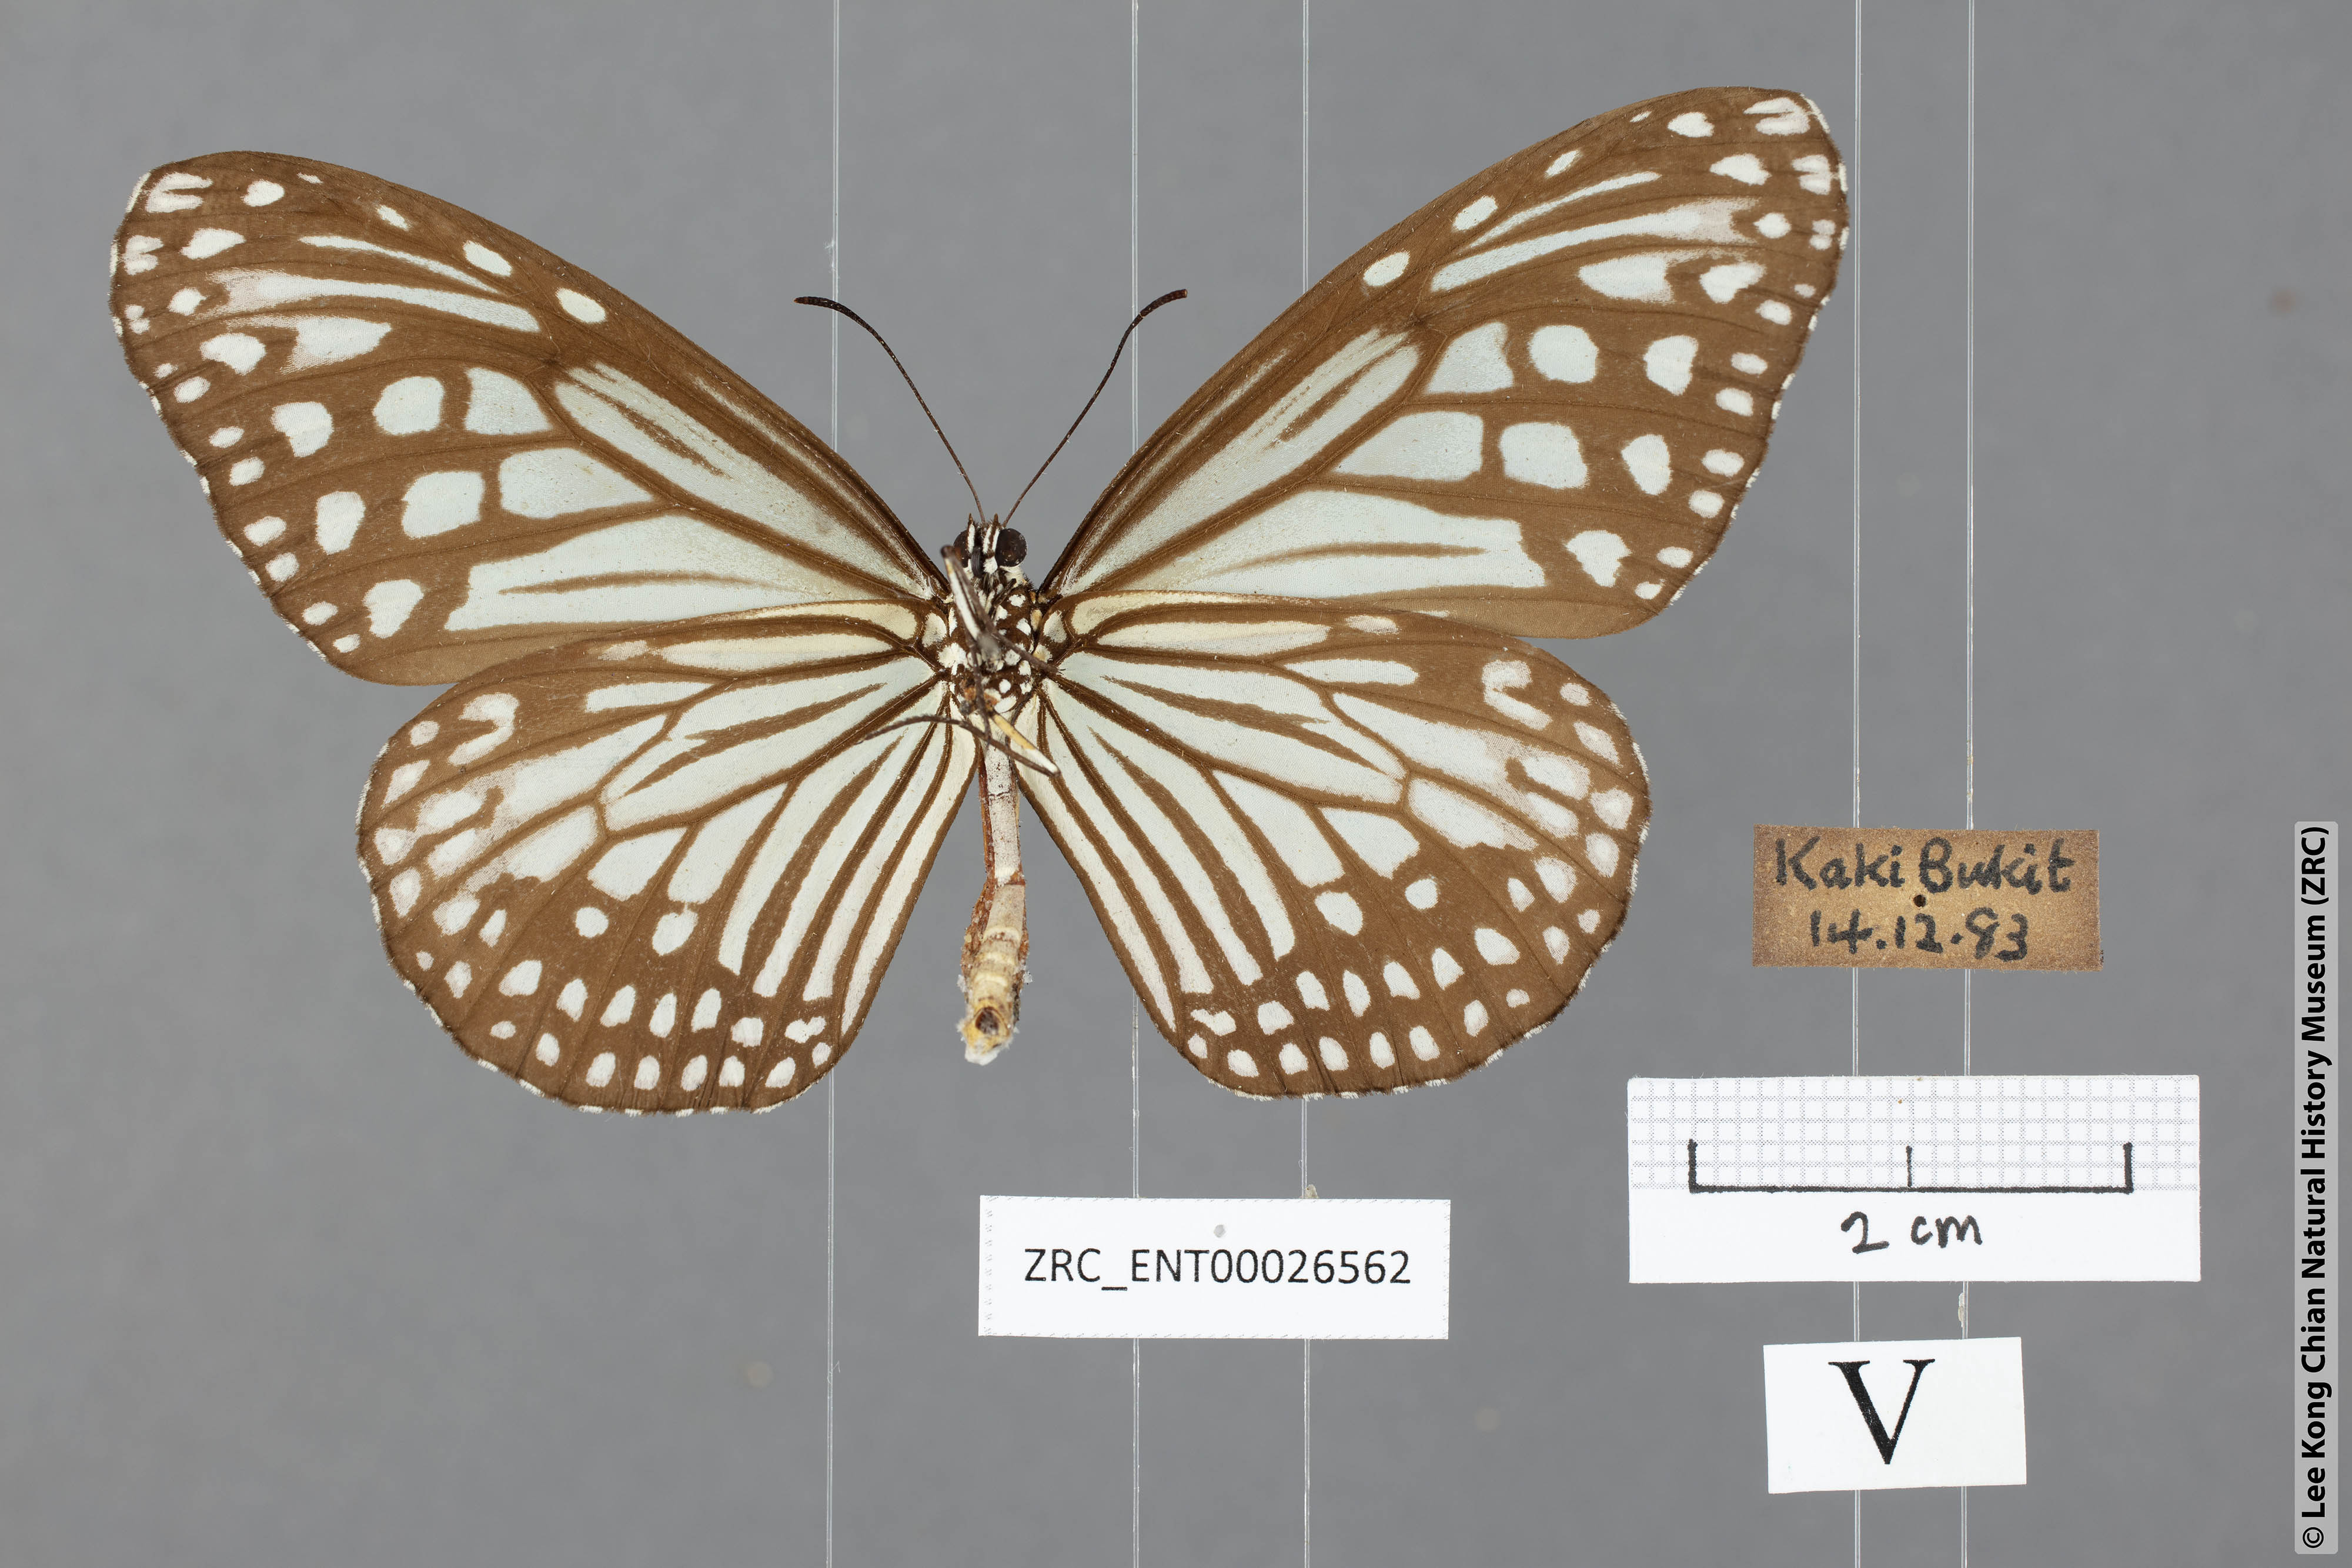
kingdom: Animalia
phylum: Arthropoda
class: Insecta
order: Lepidoptera
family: Nymphalidae
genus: Parantica
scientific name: Parantica aglea
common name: Glassy tiger
